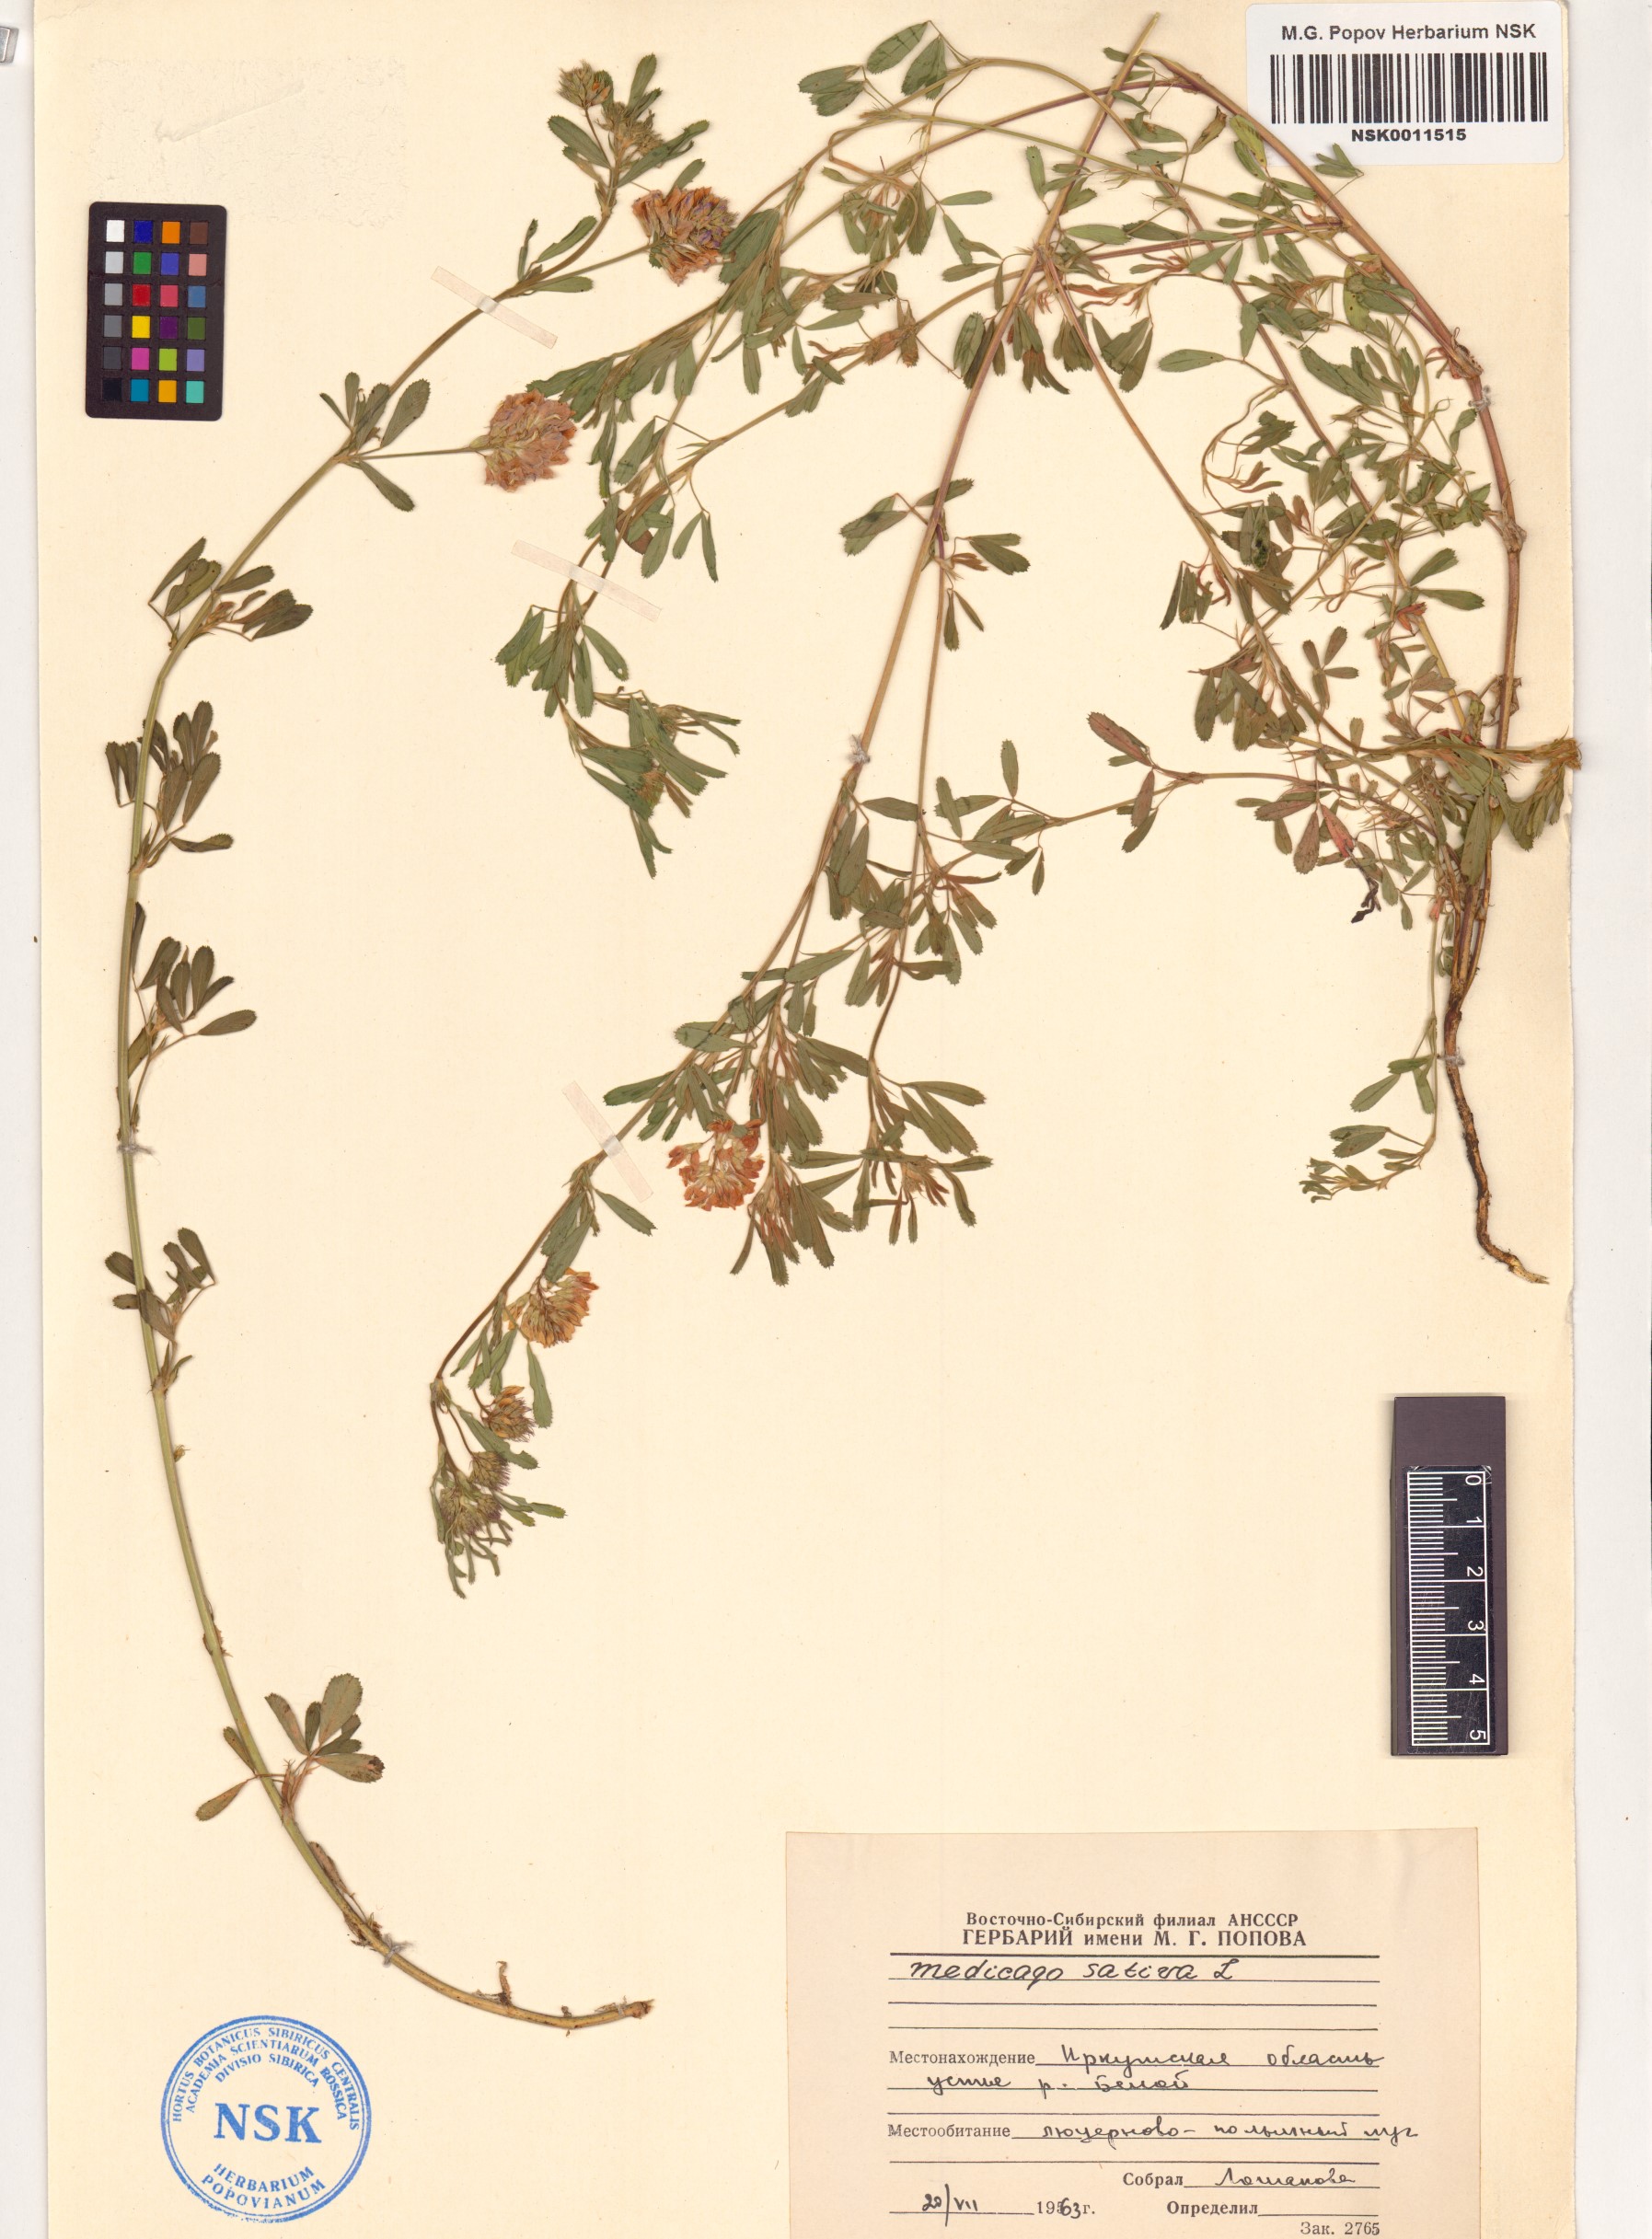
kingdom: Plantae
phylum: Tracheophyta
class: Magnoliopsida
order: Fabales
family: Fabaceae
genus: Medicago
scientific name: Medicago sativa
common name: Alfalfa
